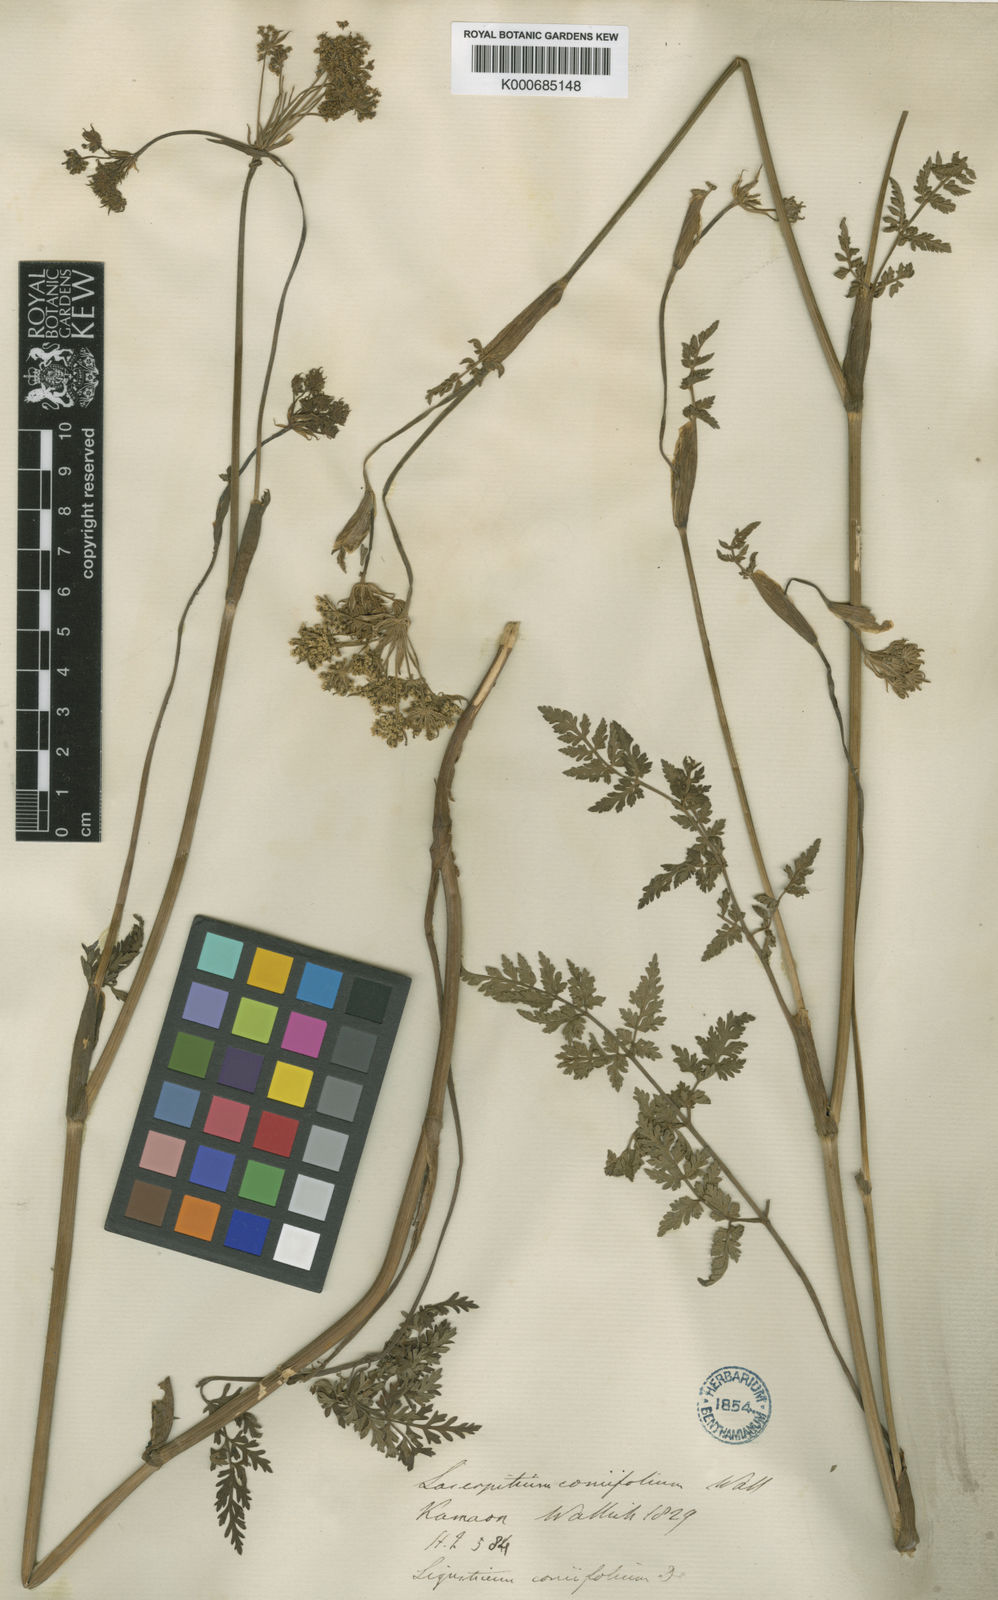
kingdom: Plantae
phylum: Tracheophyta
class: Magnoliopsida
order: Apiales
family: Apiaceae
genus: Selinum
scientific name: Selinum
